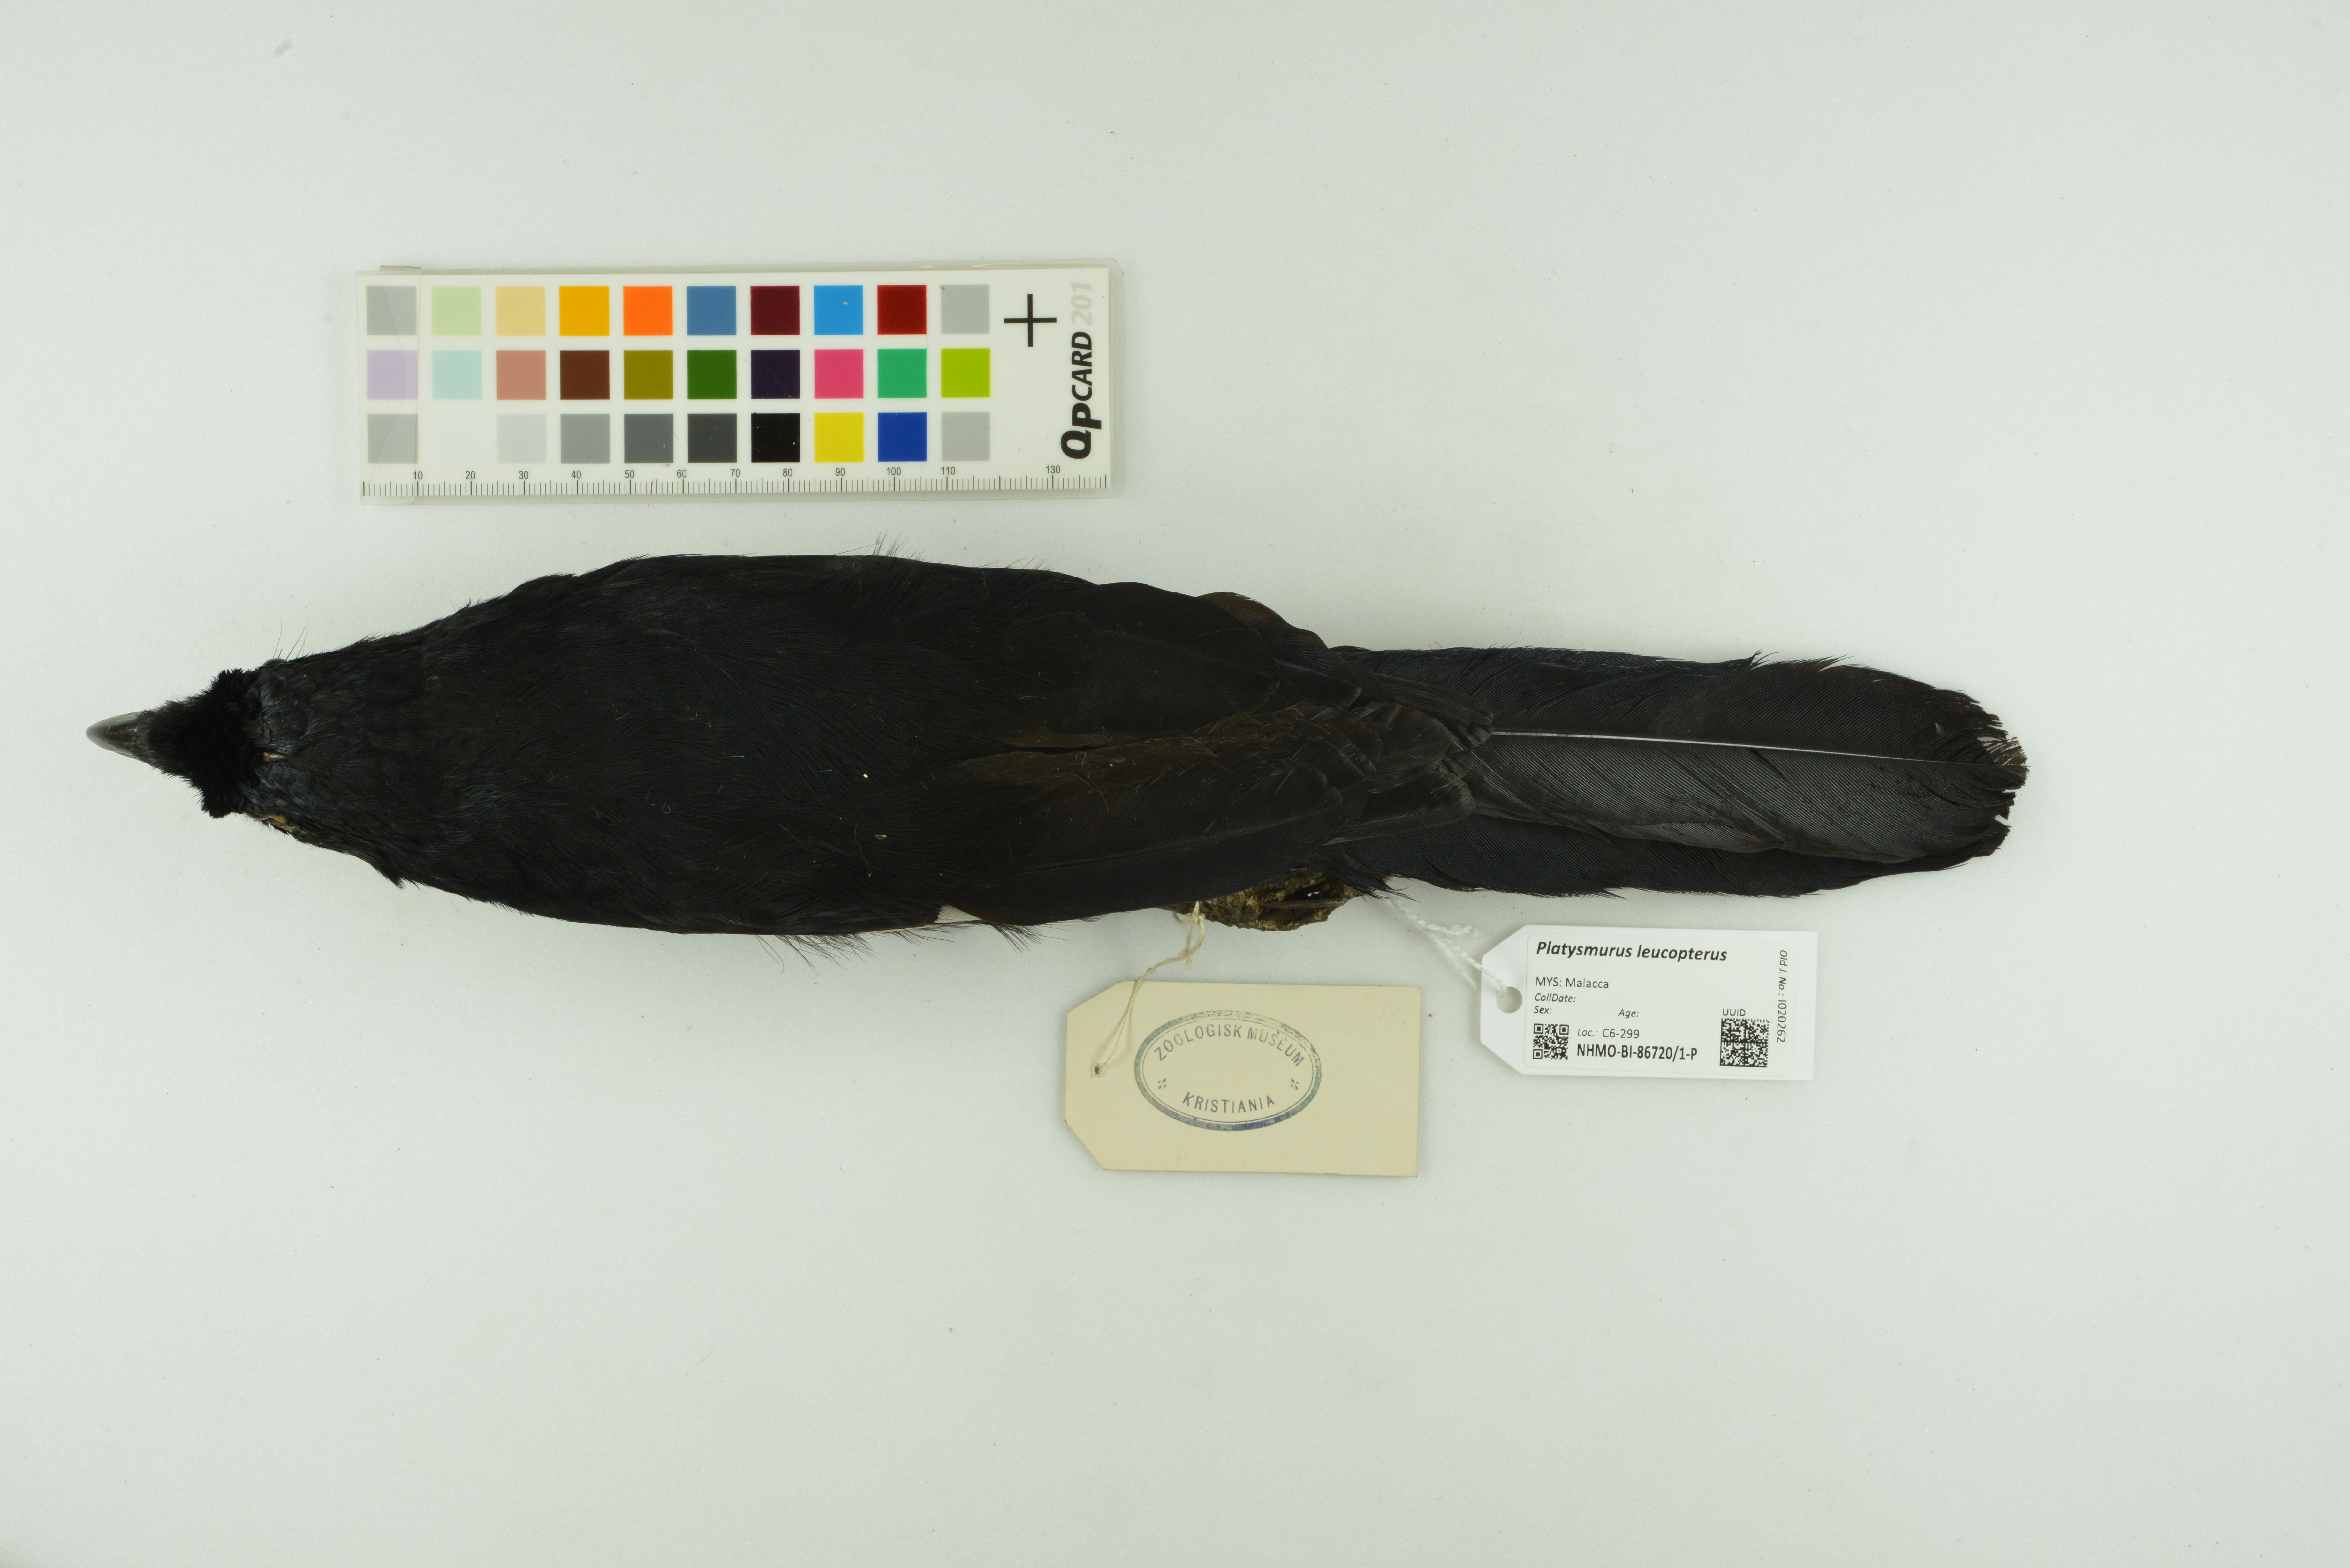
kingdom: Animalia
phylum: Chordata
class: Aves
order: Passeriformes
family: Corvidae
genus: Platysmurus
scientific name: Platysmurus leucopterus
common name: Black magpie
